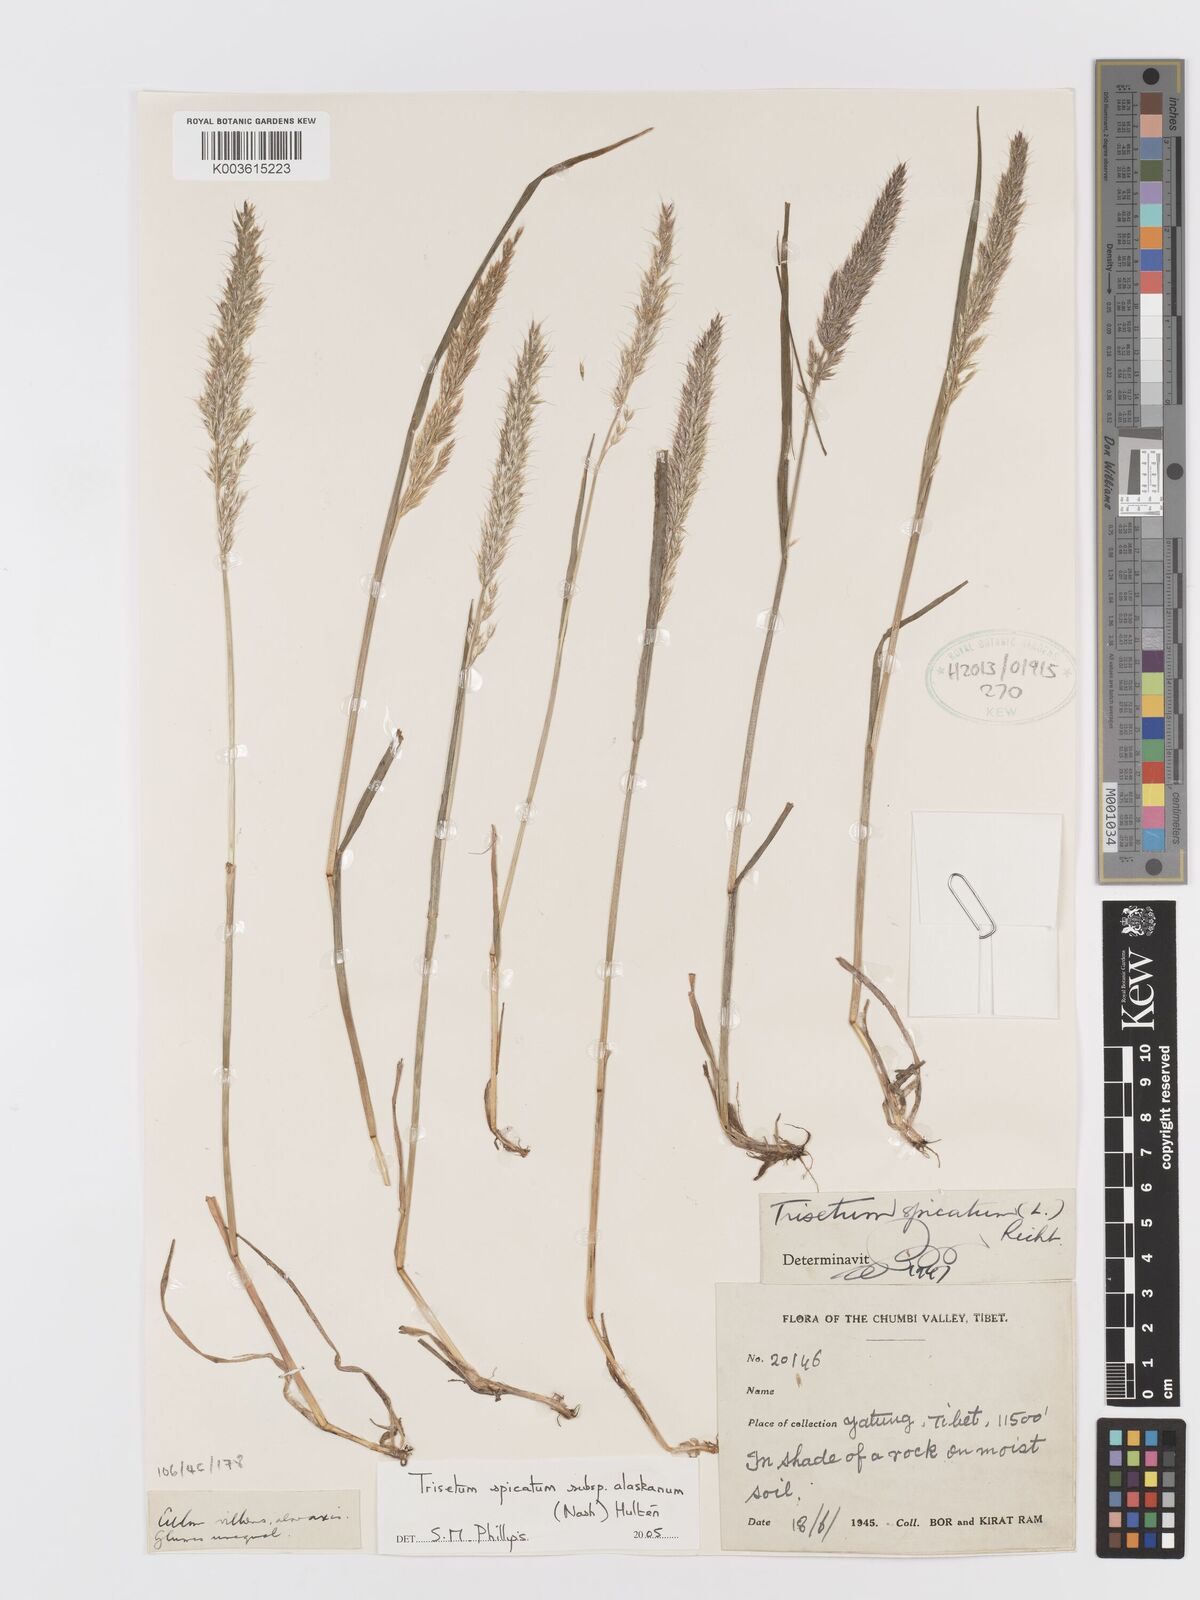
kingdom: Plantae
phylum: Tracheophyta
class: Liliopsida
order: Poales
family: Poaceae
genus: Koeleria
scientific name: Koeleria spicata
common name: Mountain trisetum
